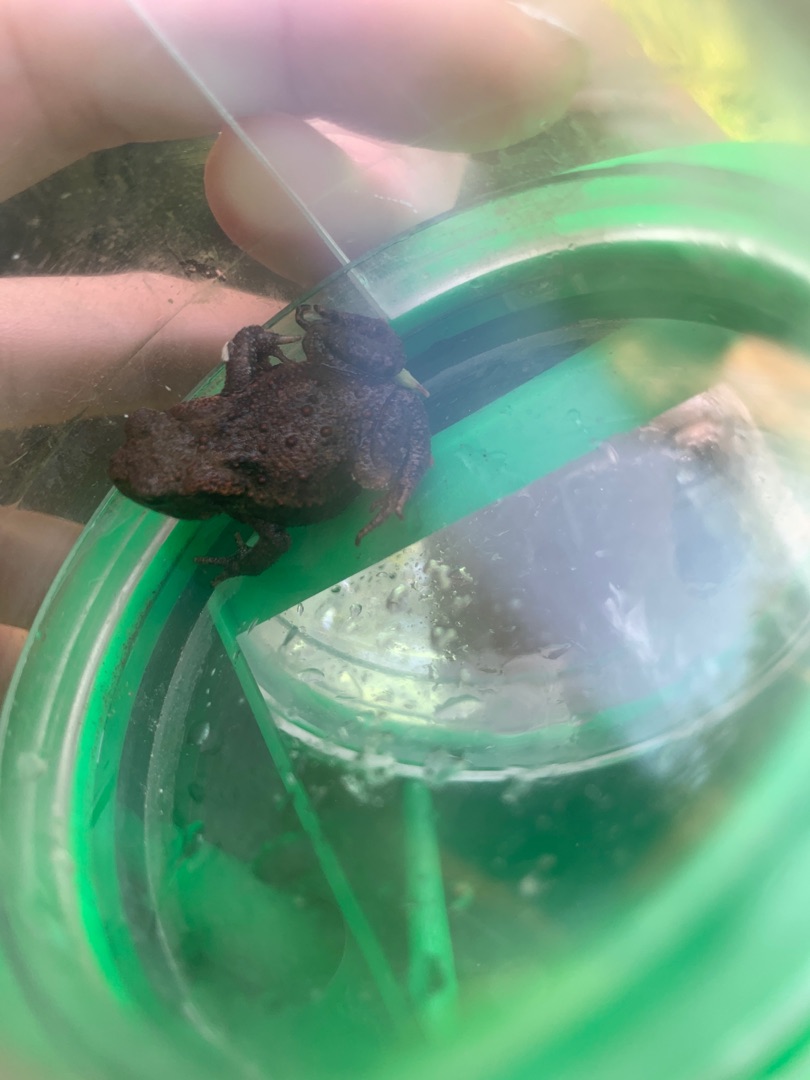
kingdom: Animalia
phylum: Chordata
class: Amphibia
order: Anura
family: Bufonidae
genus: Bufo
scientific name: Bufo bufo
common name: Skrubtudse
